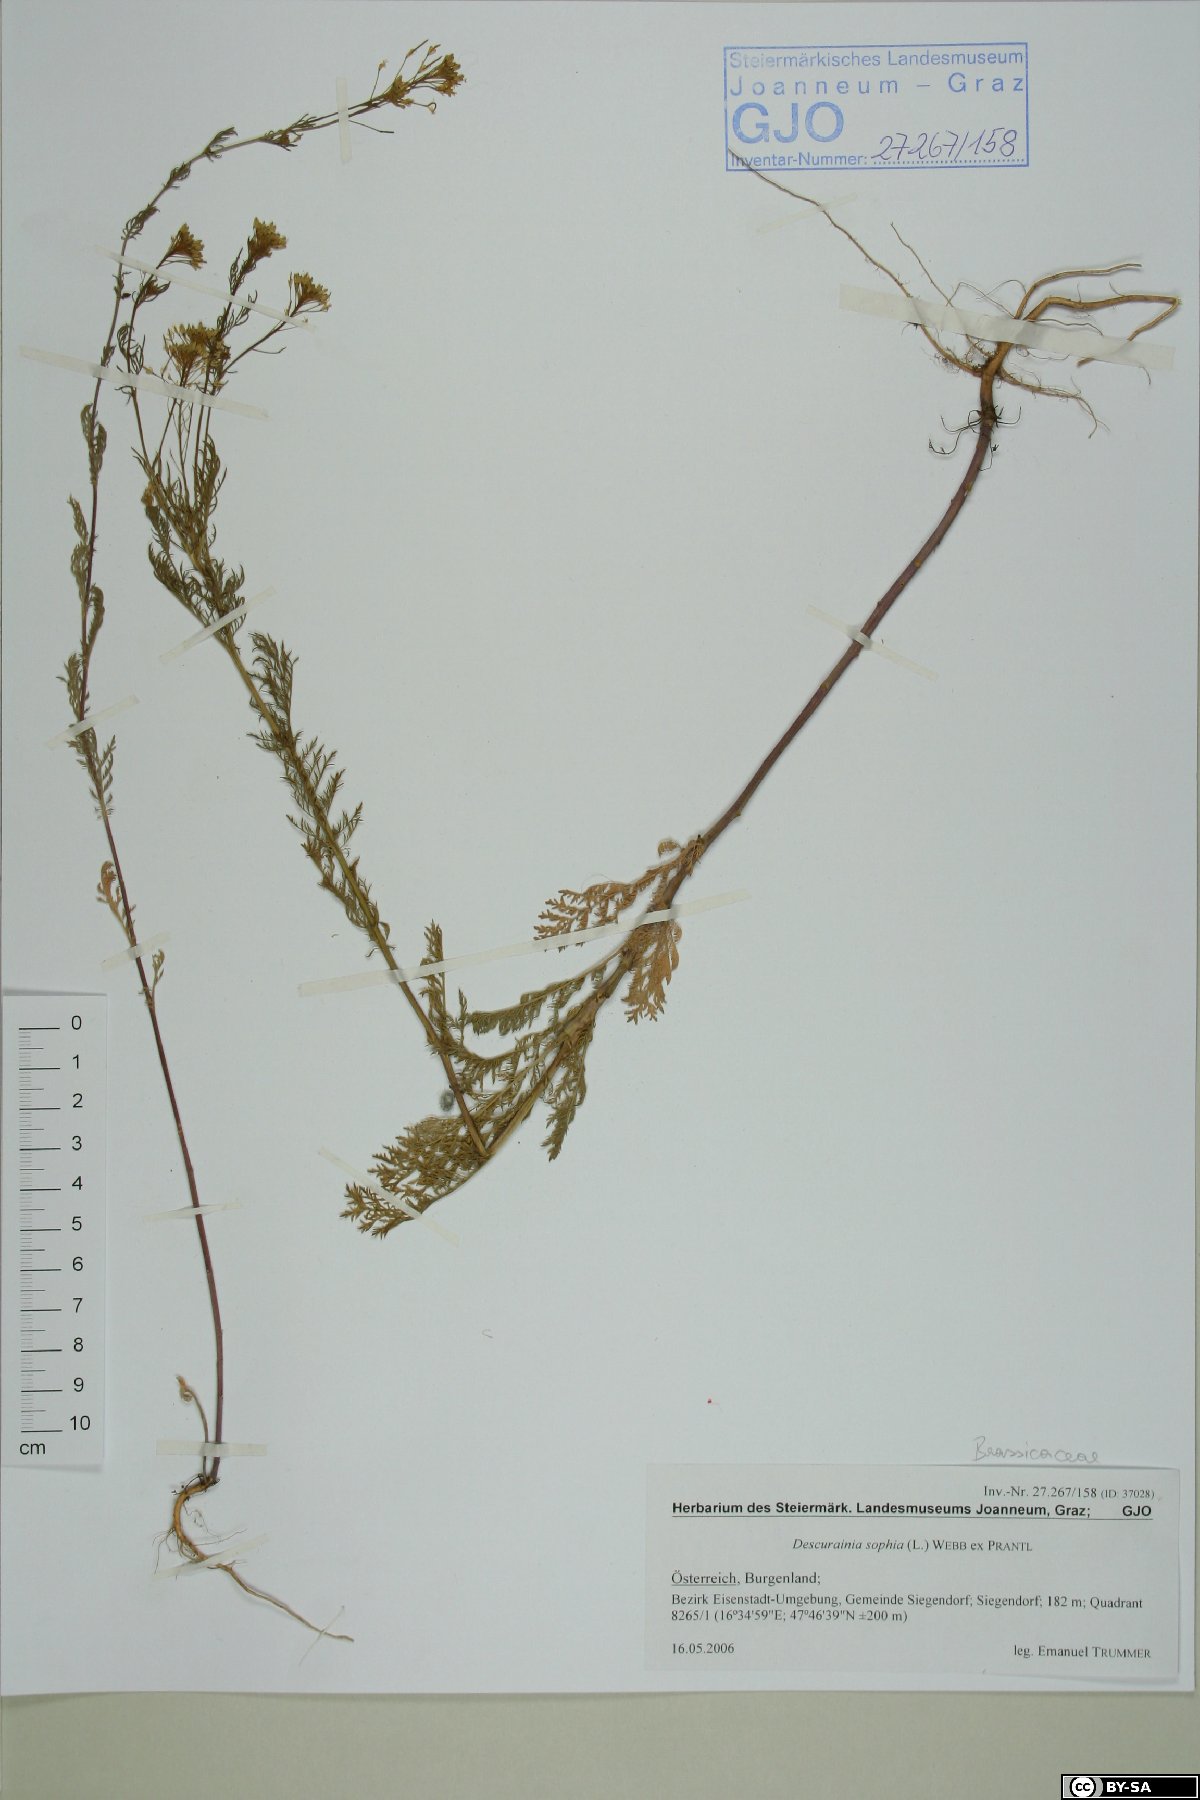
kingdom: Plantae
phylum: Tracheophyta
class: Magnoliopsida
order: Brassicales
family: Brassicaceae
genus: Descurainia
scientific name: Descurainia sophia
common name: Flixweed
